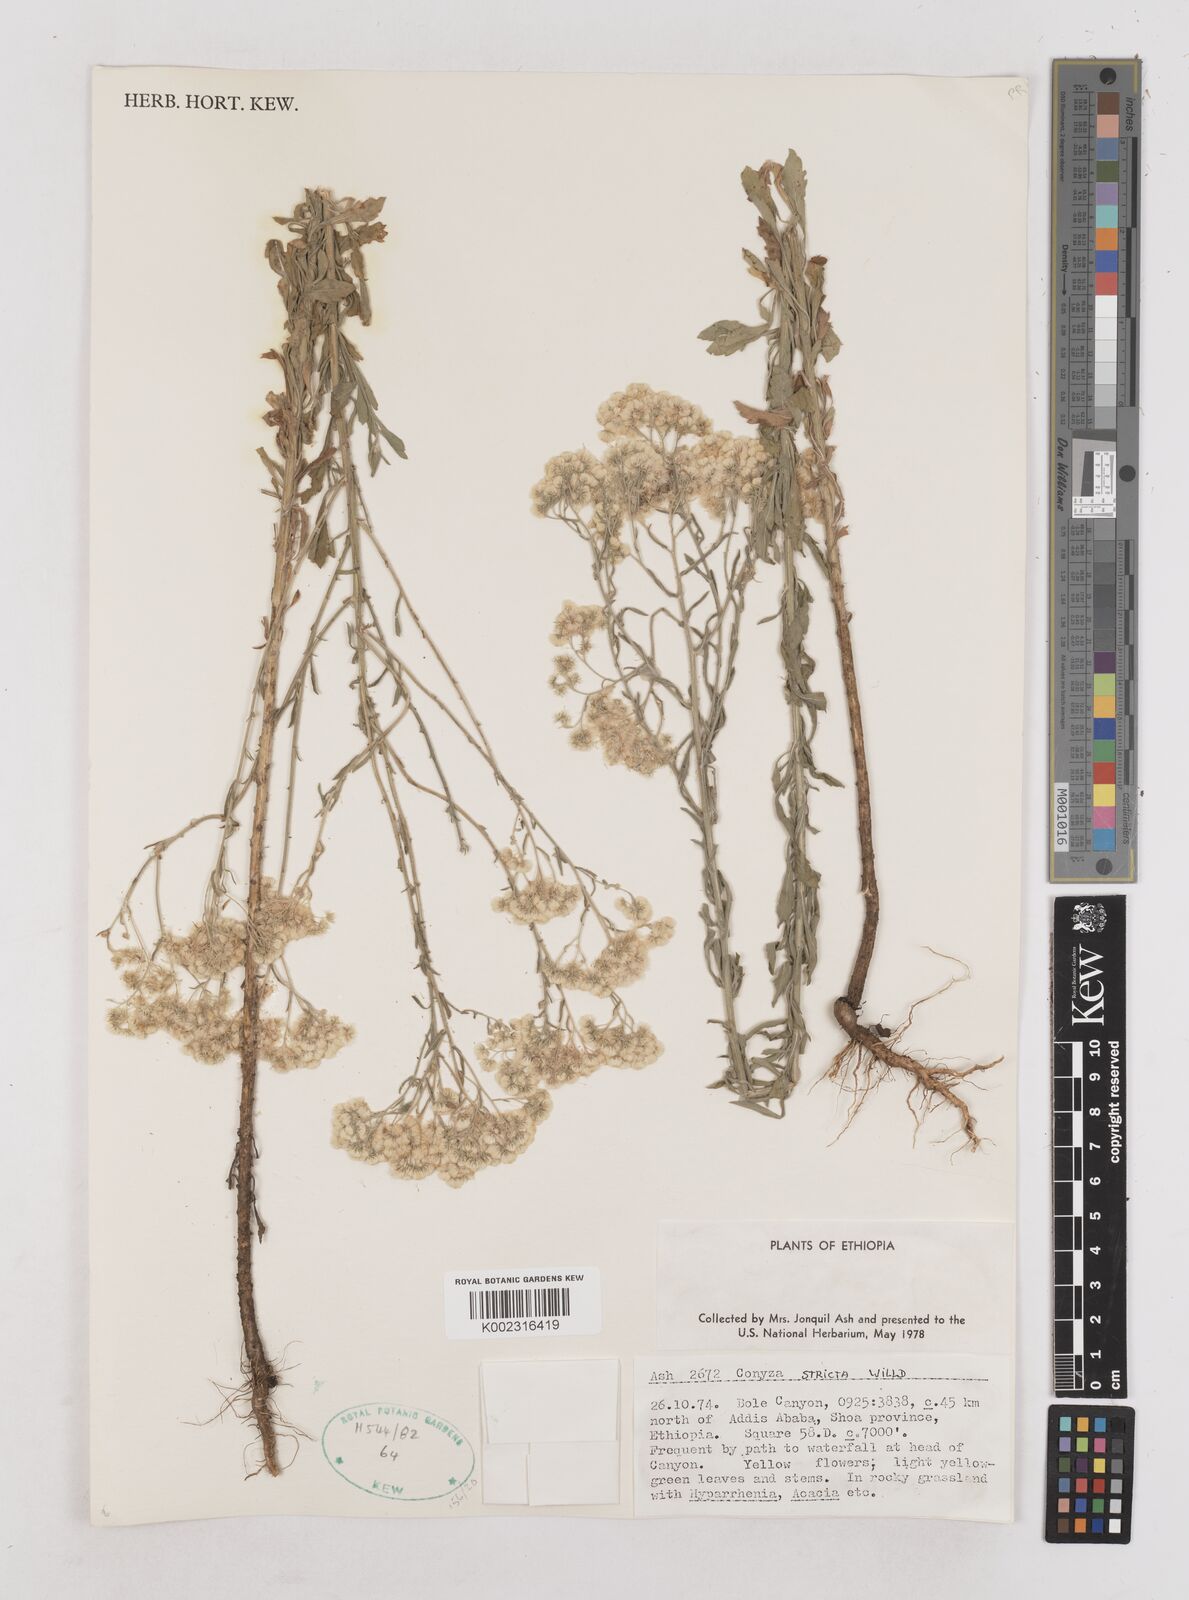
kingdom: Plantae
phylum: Tracheophyta
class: Magnoliopsida
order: Asterales
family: Asteraceae
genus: Nidorella
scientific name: Nidorella triloba
